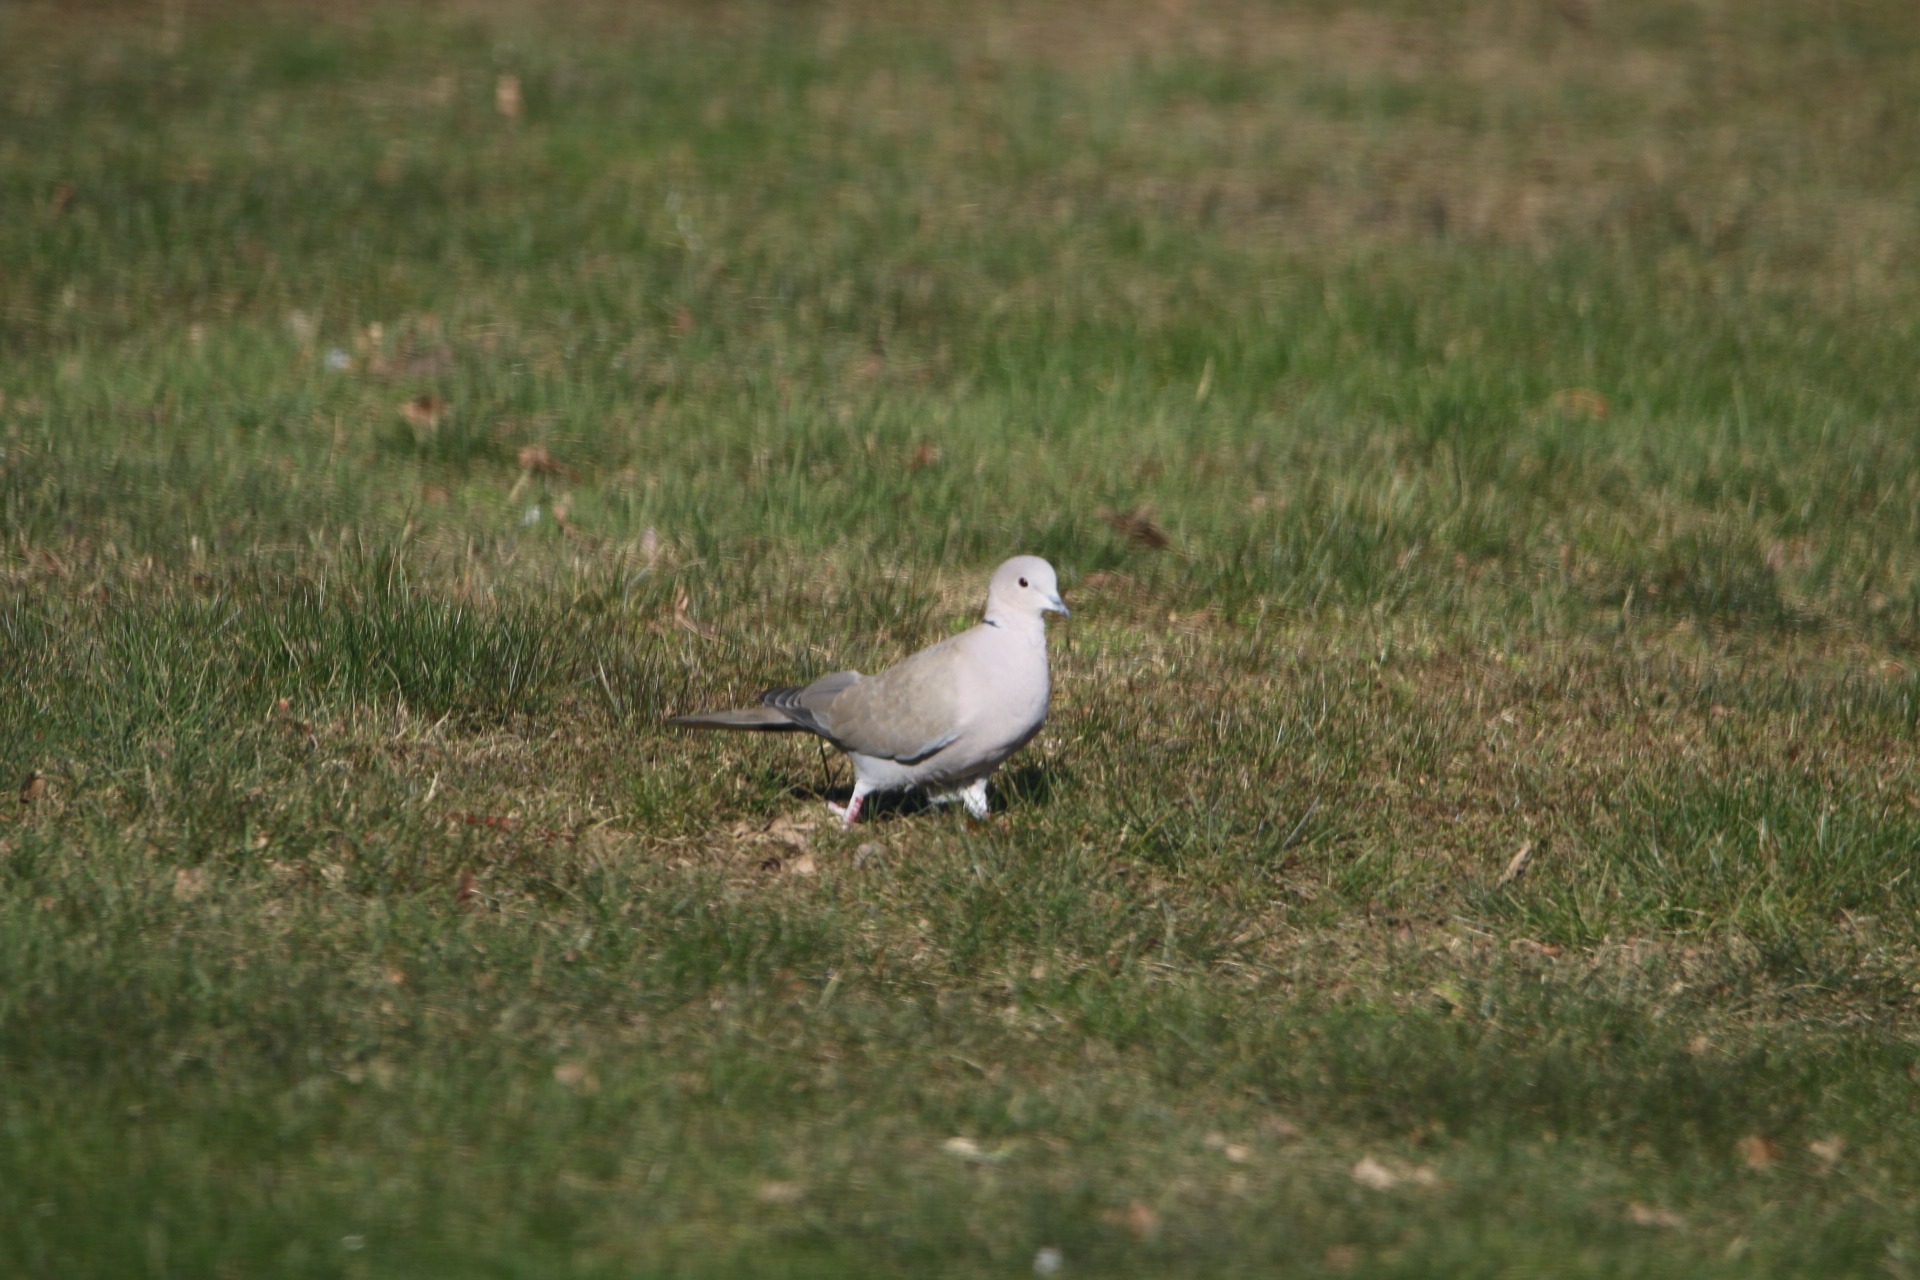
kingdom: Animalia
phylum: Chordata
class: Aves
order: Columbiformes
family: Columbidae
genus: Streptopelia
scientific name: Streptopelia decaocto
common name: Tyrkerdue
